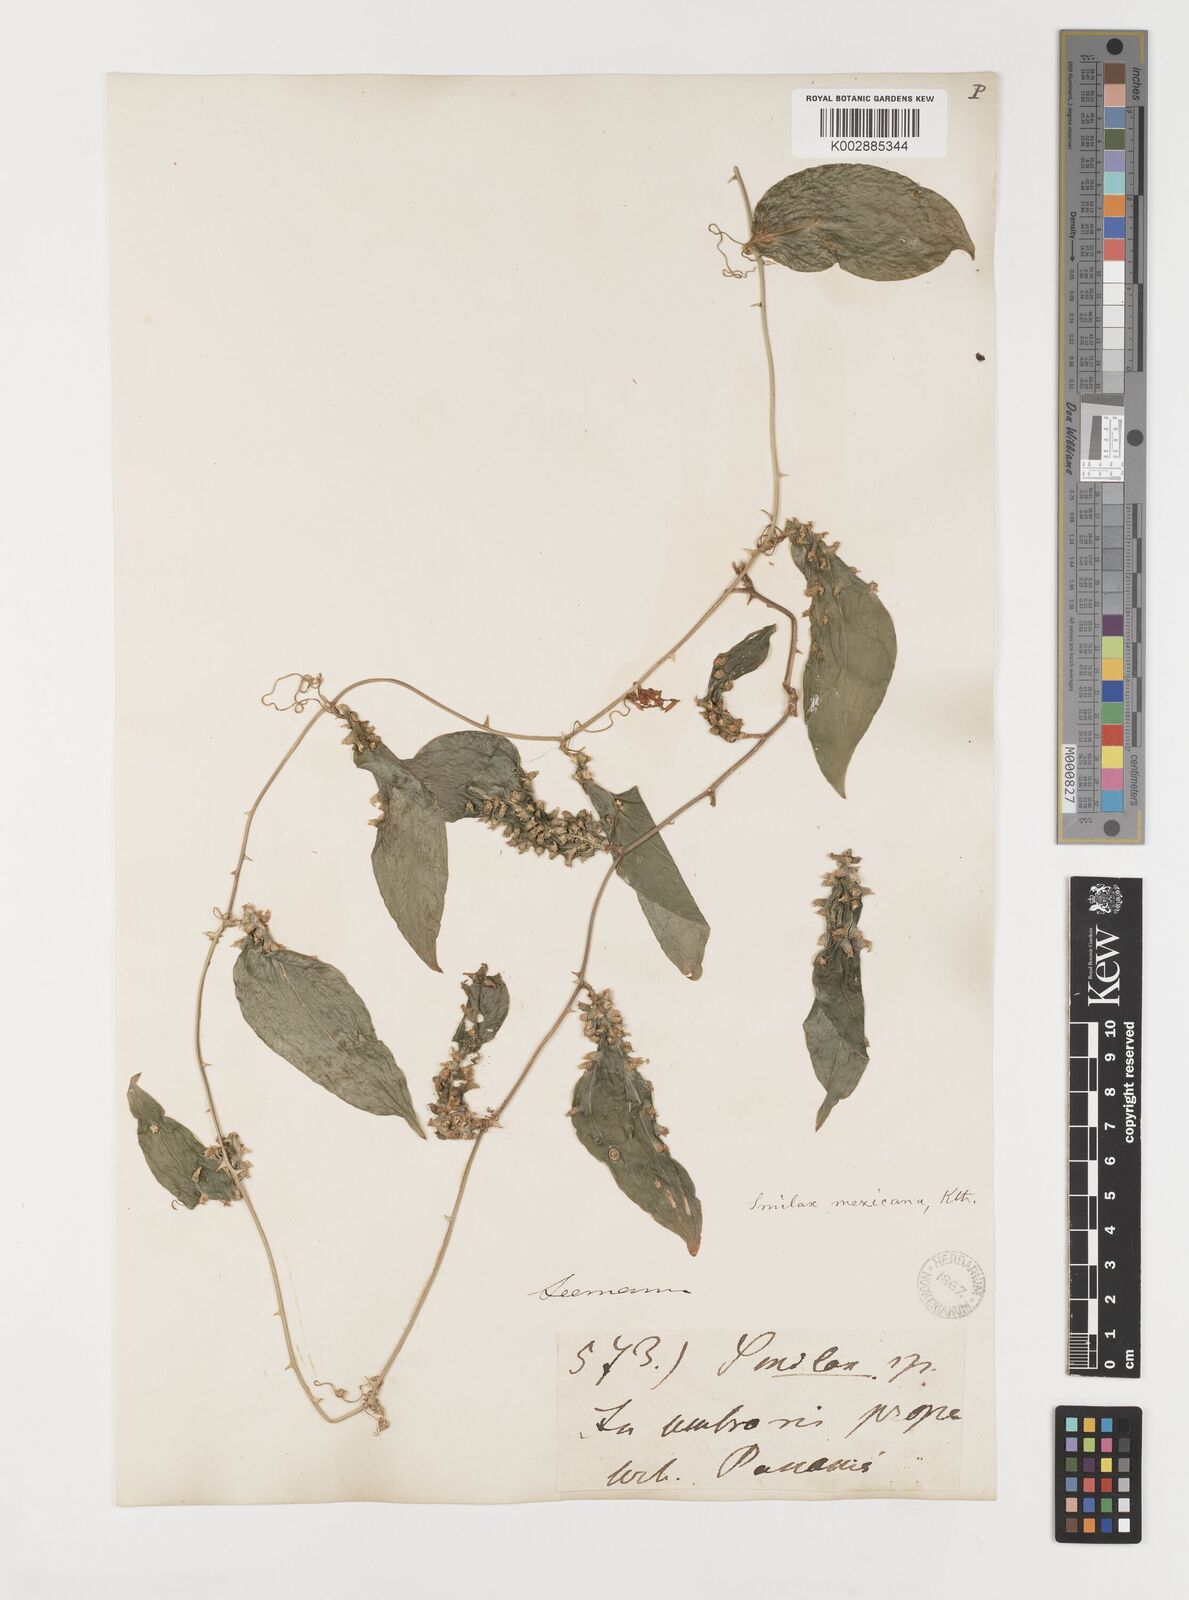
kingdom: Plantae
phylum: Tracheophyta
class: Liliopsida
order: Liliales
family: Smilacaceae
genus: Smilax
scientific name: Smilax spinosa
